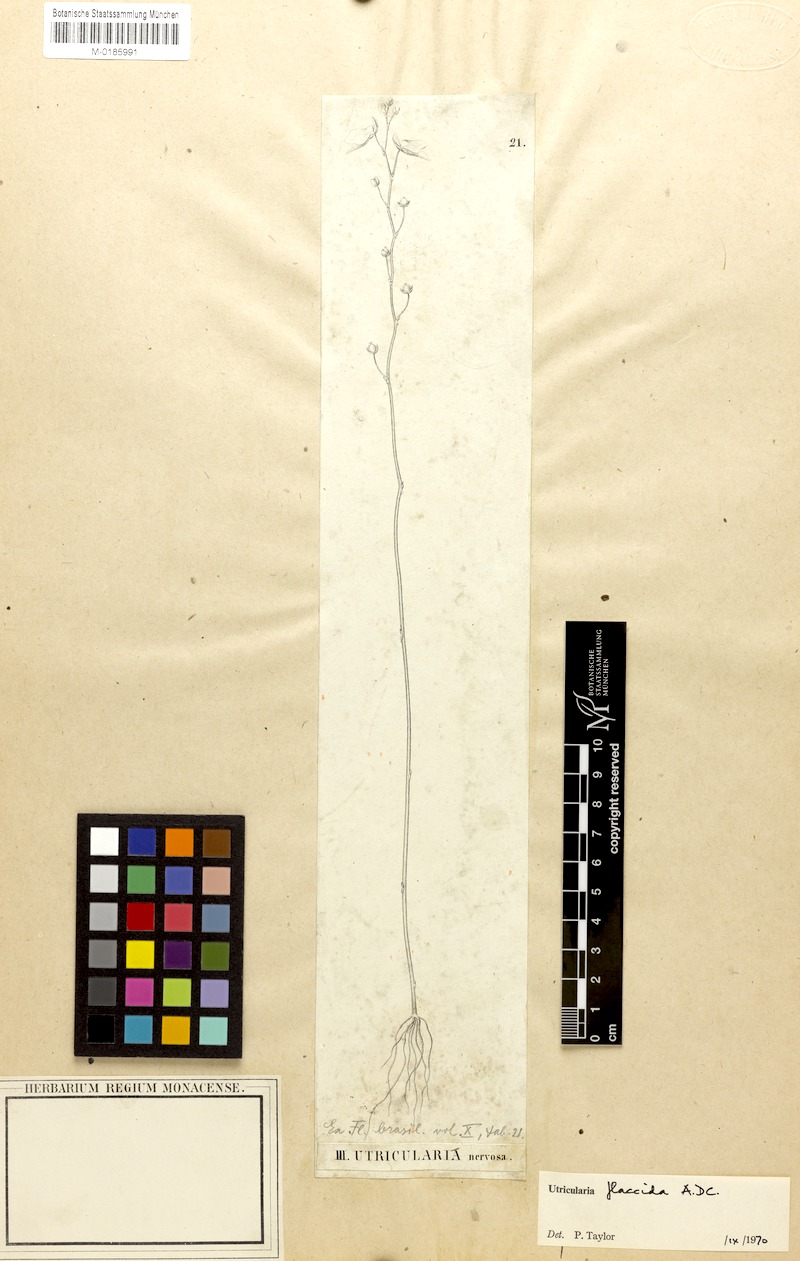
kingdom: Plantae
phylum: Tracheophyta
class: Magnoliopsida
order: Lamiales
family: Lentibulariaceae
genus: Utricularia
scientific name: Utricularia nervosa
